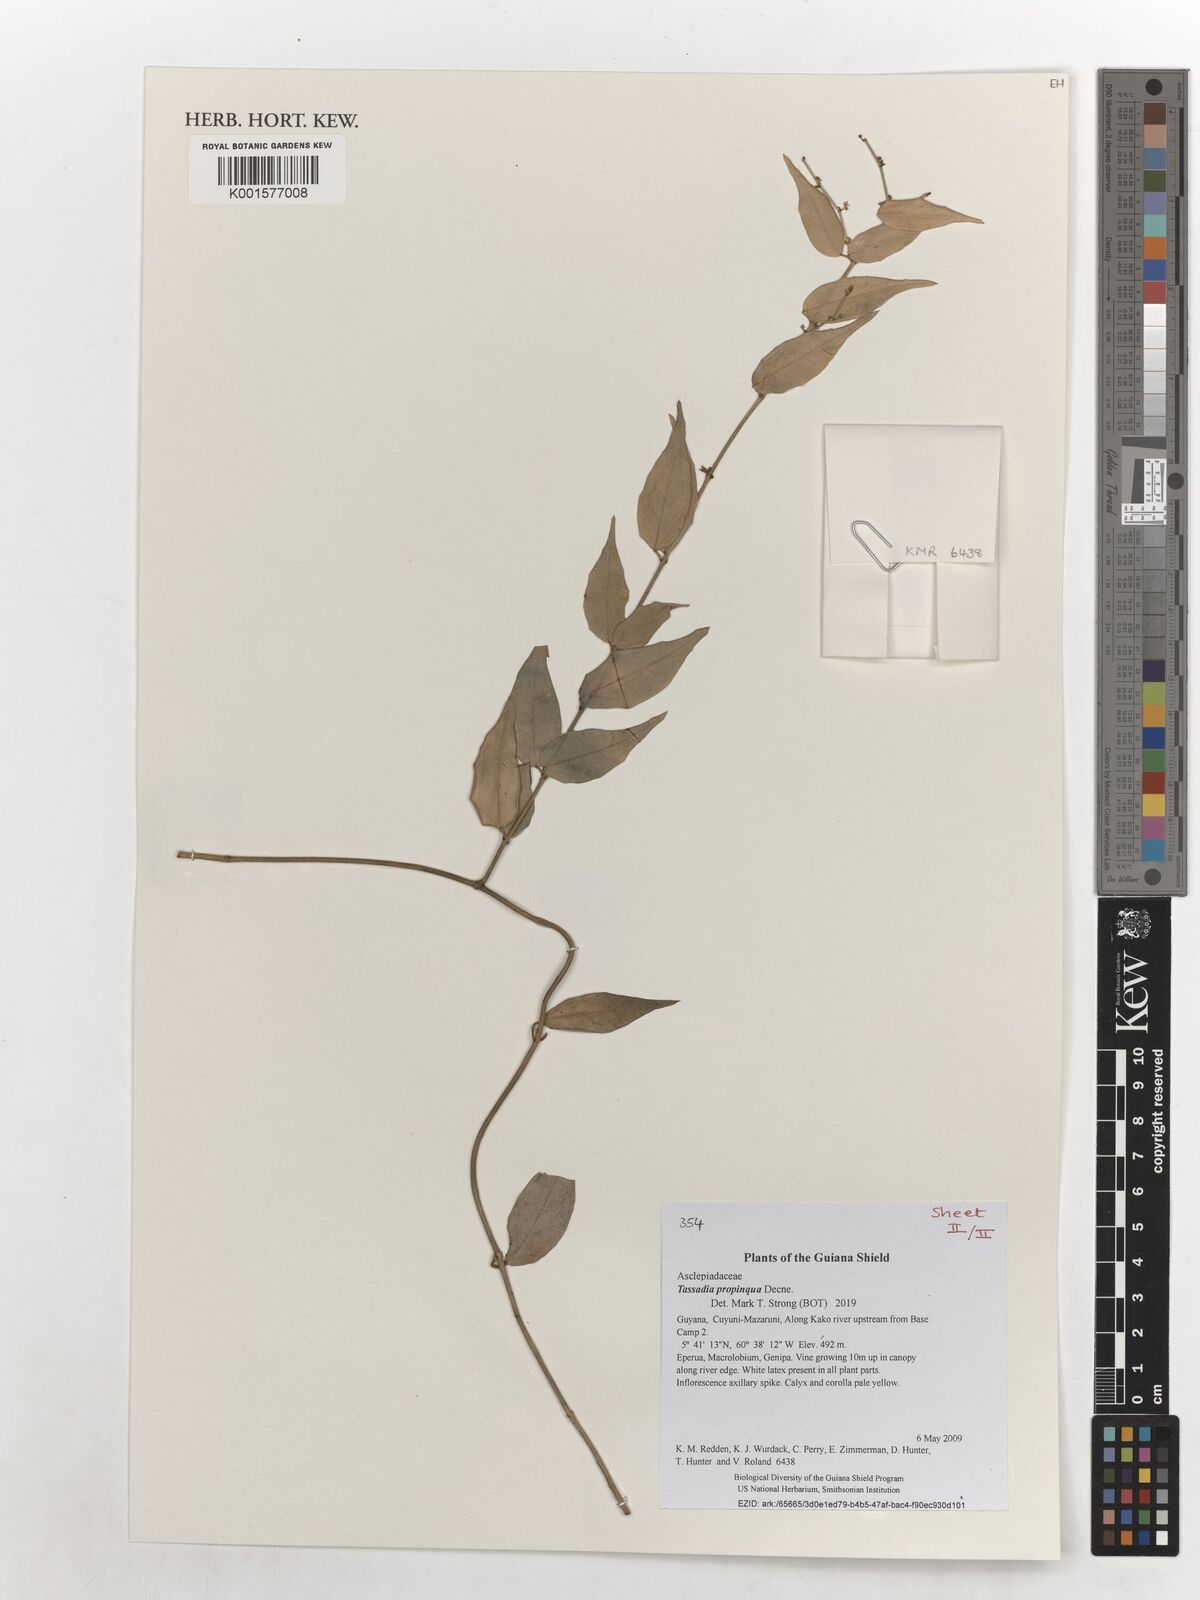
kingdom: Plantae
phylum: Tracheophyta
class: Magnoliopsida
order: Gentianales
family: Apocynaceae
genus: Tassadia
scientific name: Tassadia propinqua
